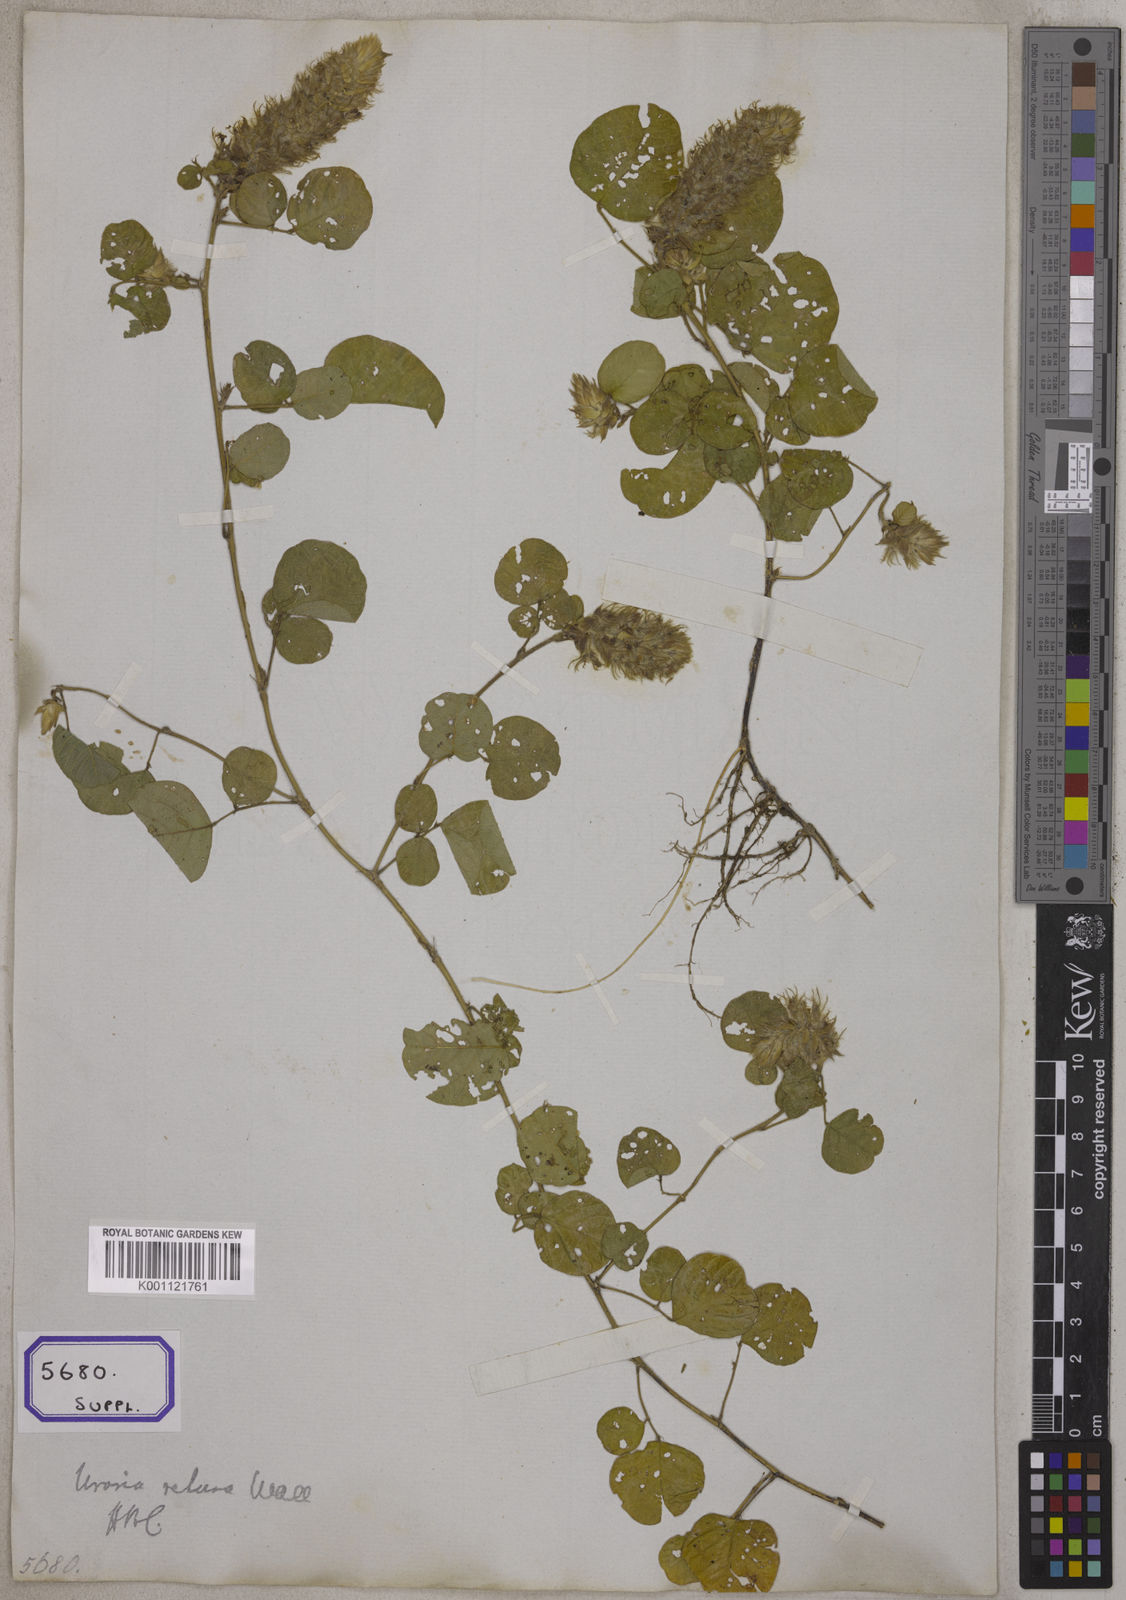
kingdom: Plantae
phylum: Tracheophyta
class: Magnoliopsida
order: Fabales
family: Fabaceae
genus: Uraria
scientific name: Uraria lagopodioides
